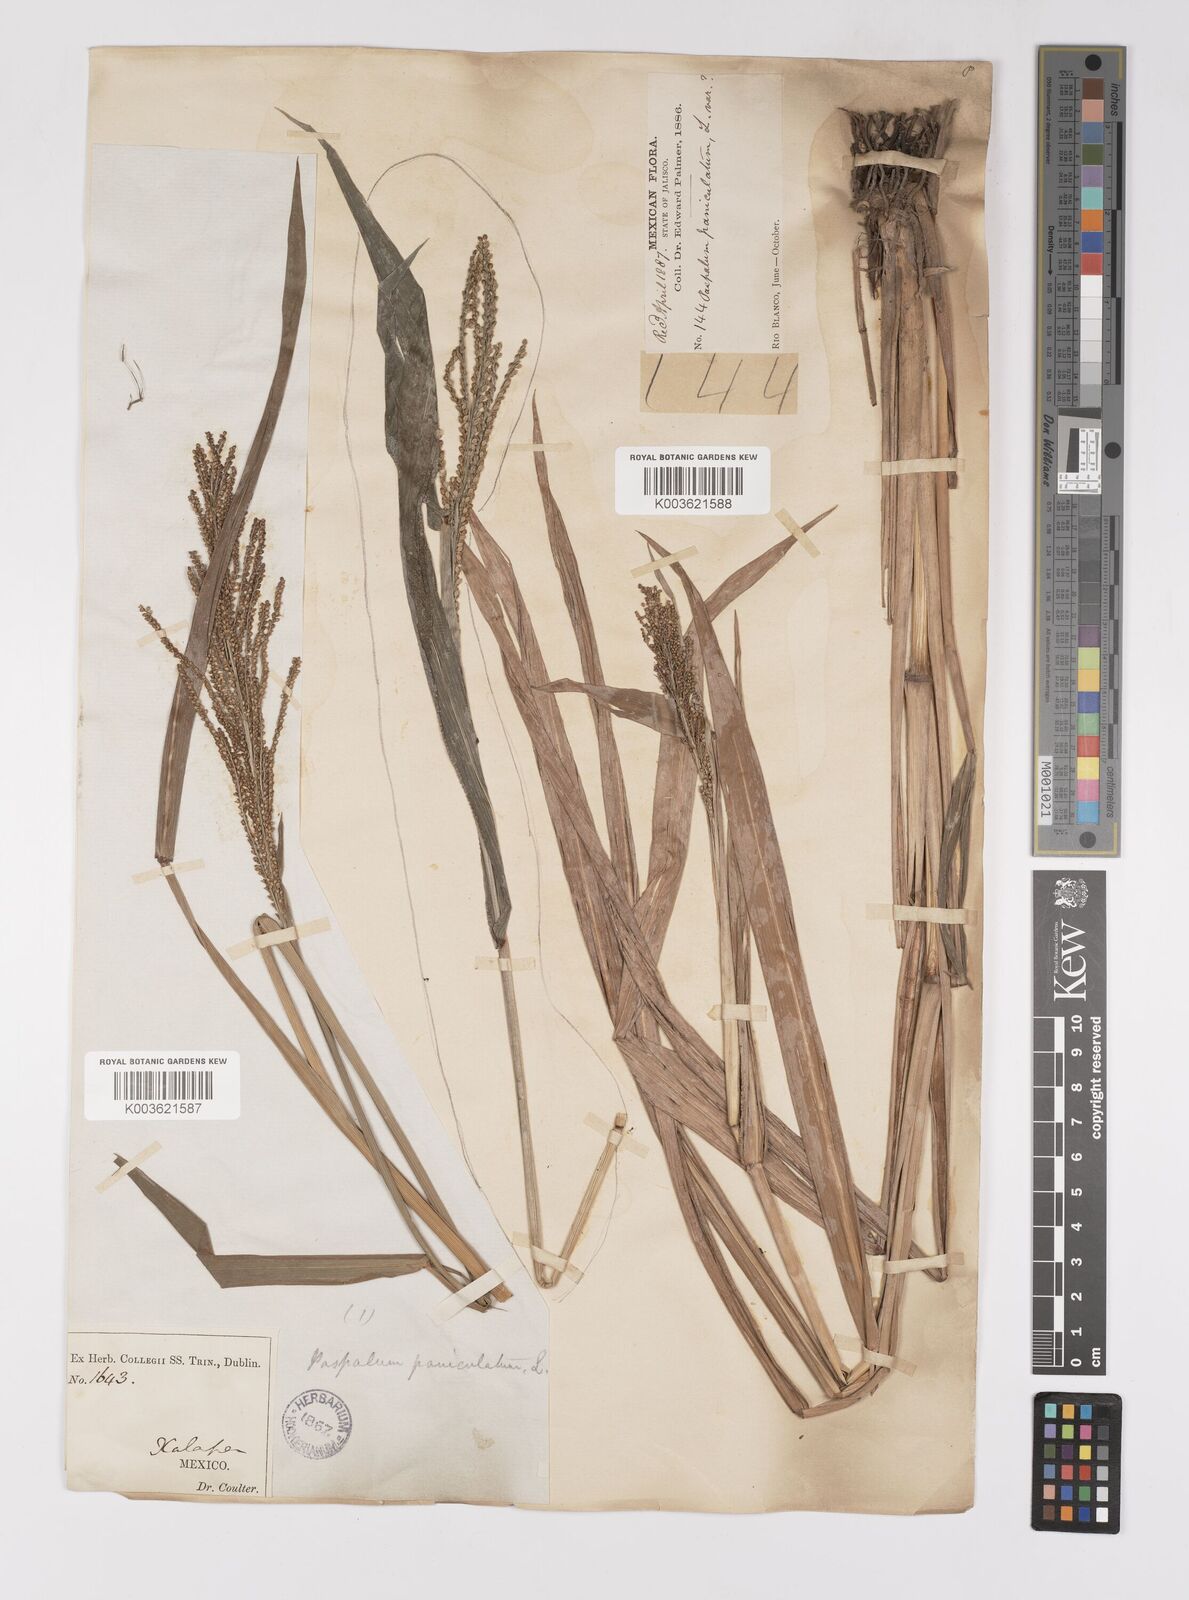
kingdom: Plantae
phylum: Tracheophyta
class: Liliopsida
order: Poales
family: Poaceae
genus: Paspalum
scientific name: Paspalum paniculatum
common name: Arrocillo
